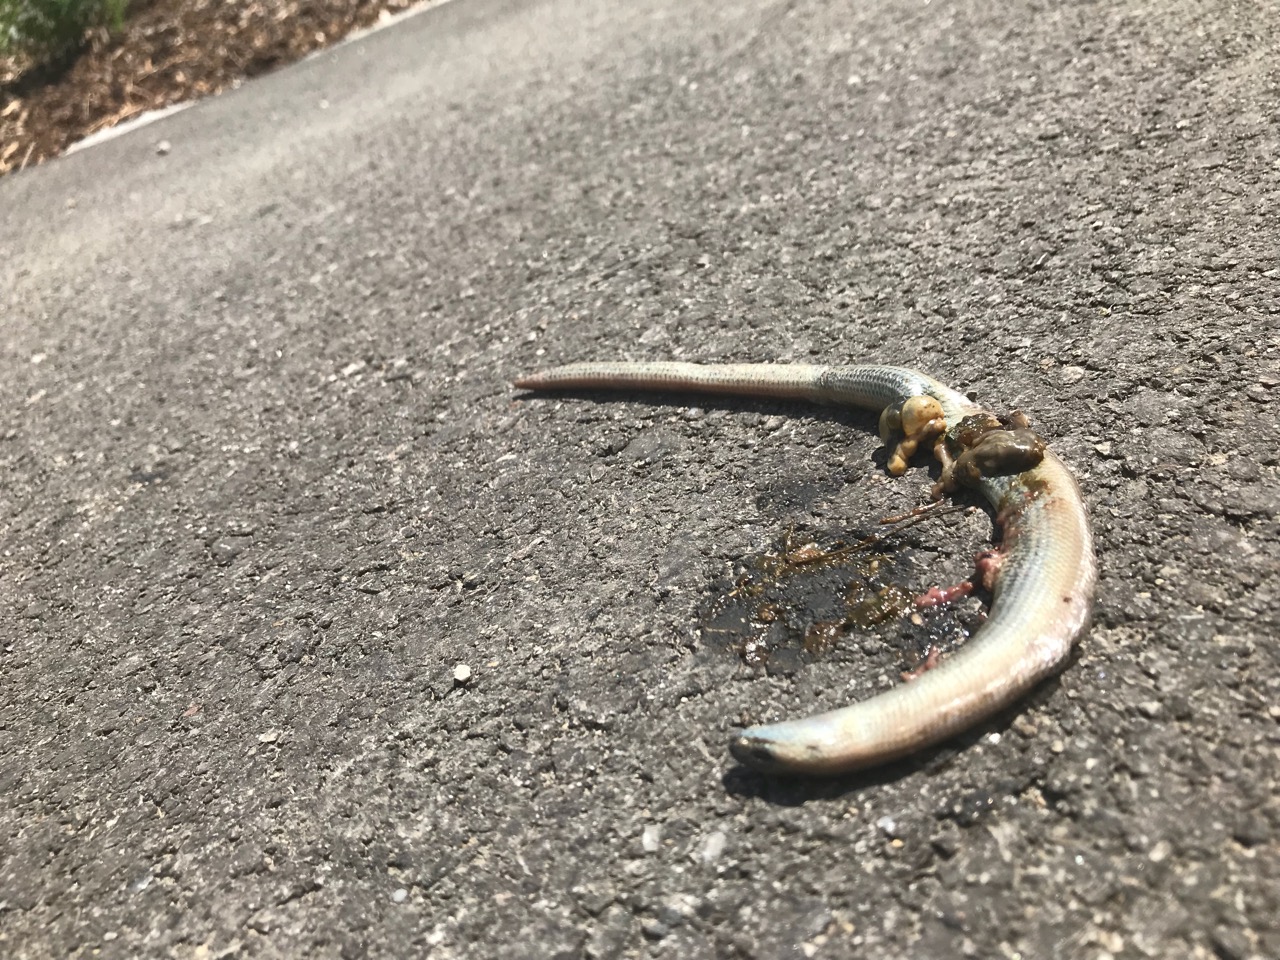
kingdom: Animalia
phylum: Chordata
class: Squamata
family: Anguidae
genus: Anguis
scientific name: Anguis fragilis
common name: Slow worm
